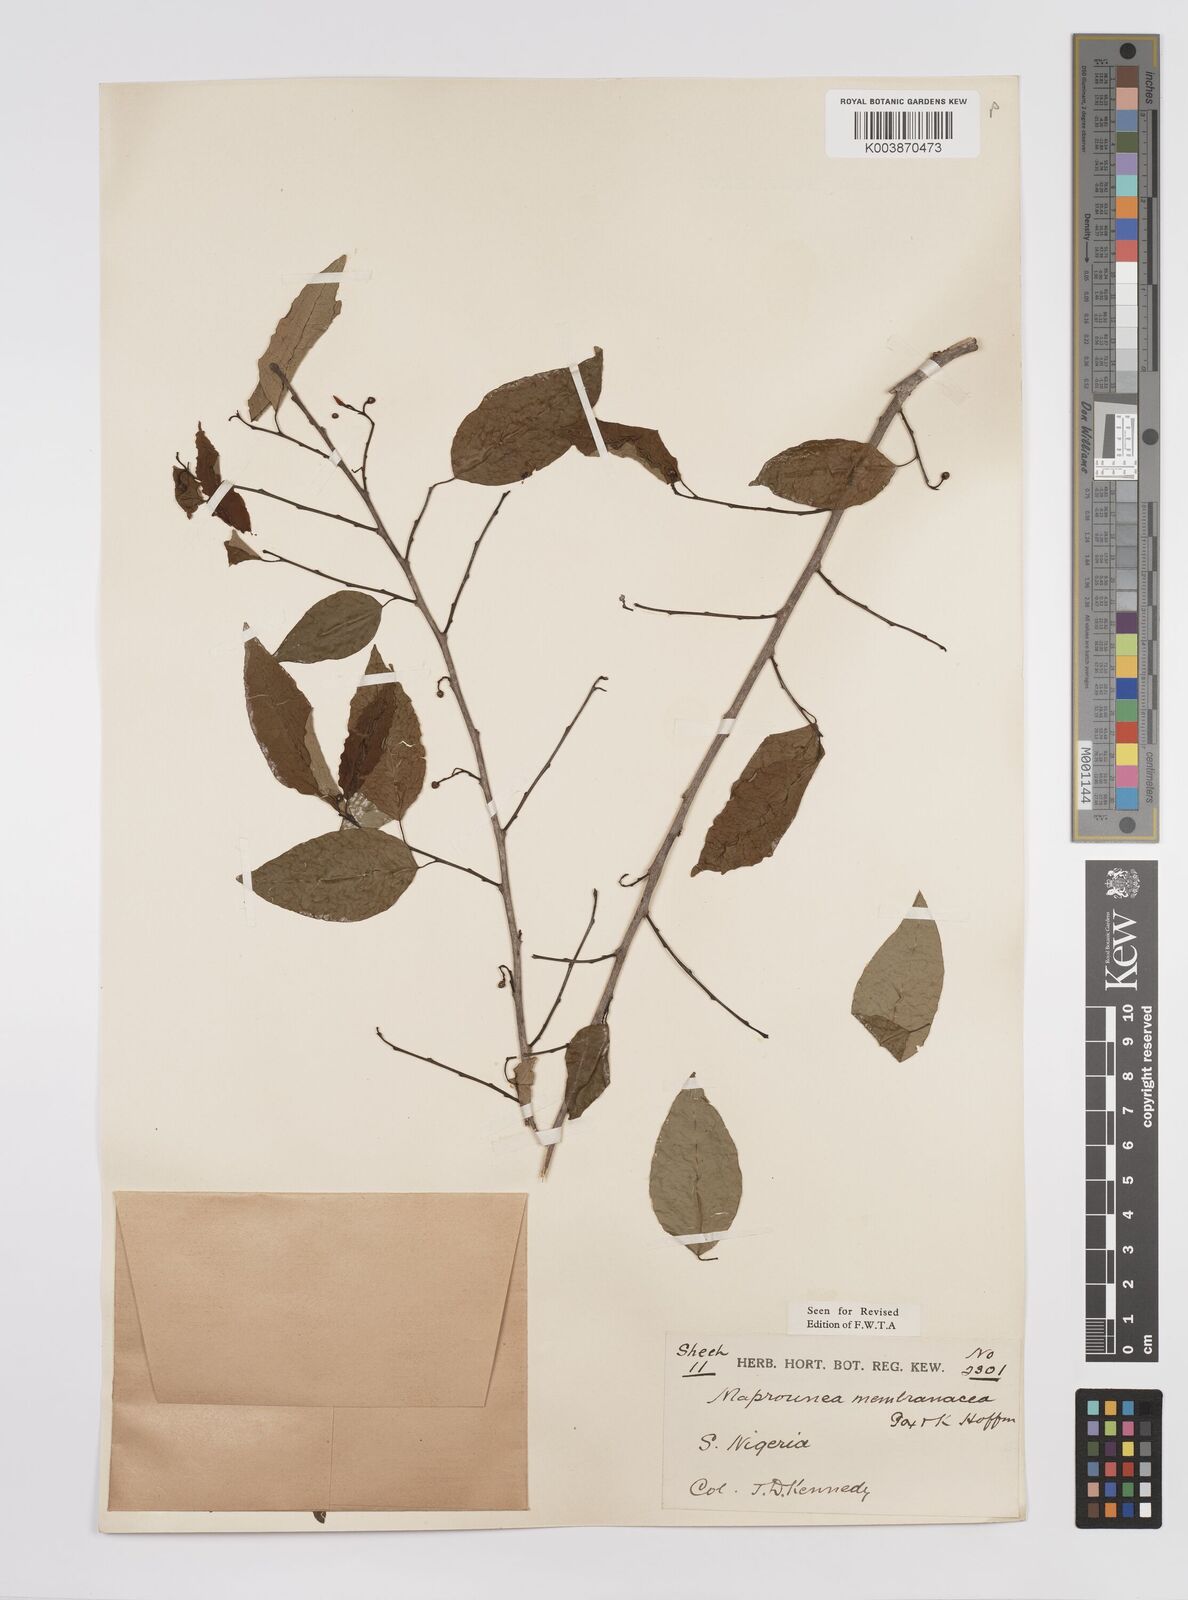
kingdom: Plantae
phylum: Tracheophyta
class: Magnoliopsida
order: Malpighiales
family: Euphorbiaceae
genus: Maprounea
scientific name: Maprounea membranacea
